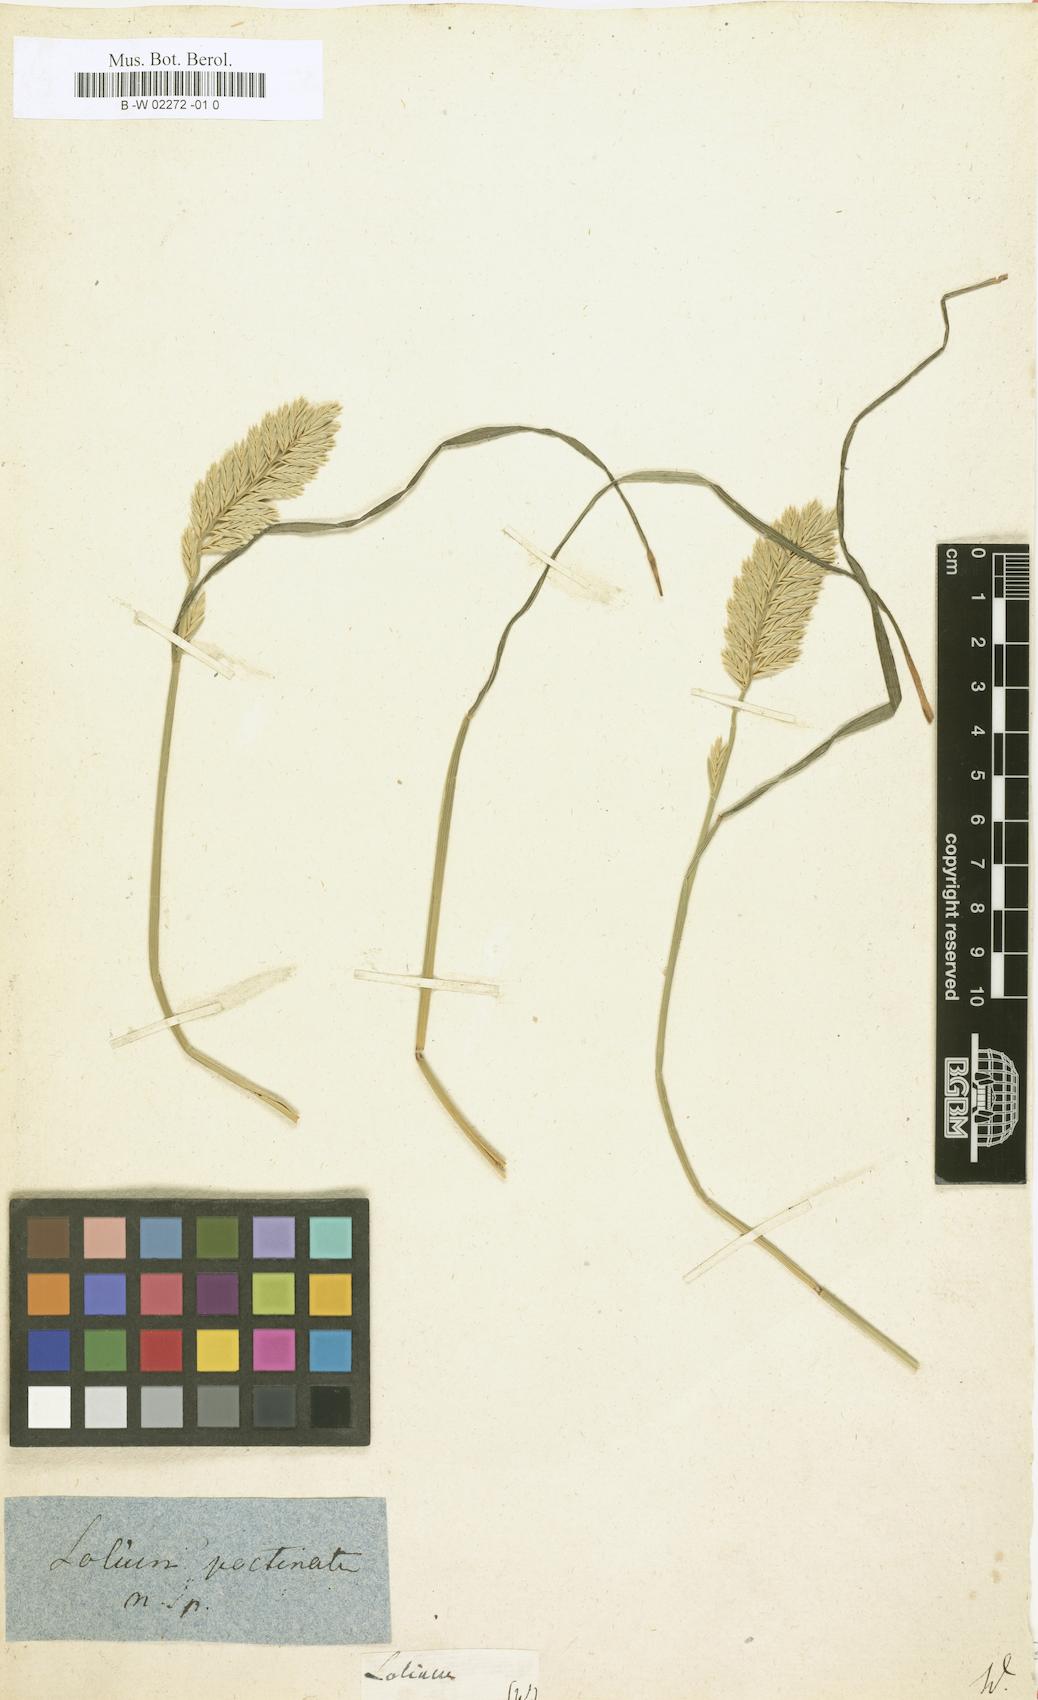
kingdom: Plantae
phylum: Tracheophyta
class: Liliopsida
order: Poales
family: Poaceae
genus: Lolium
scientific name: Lolium
